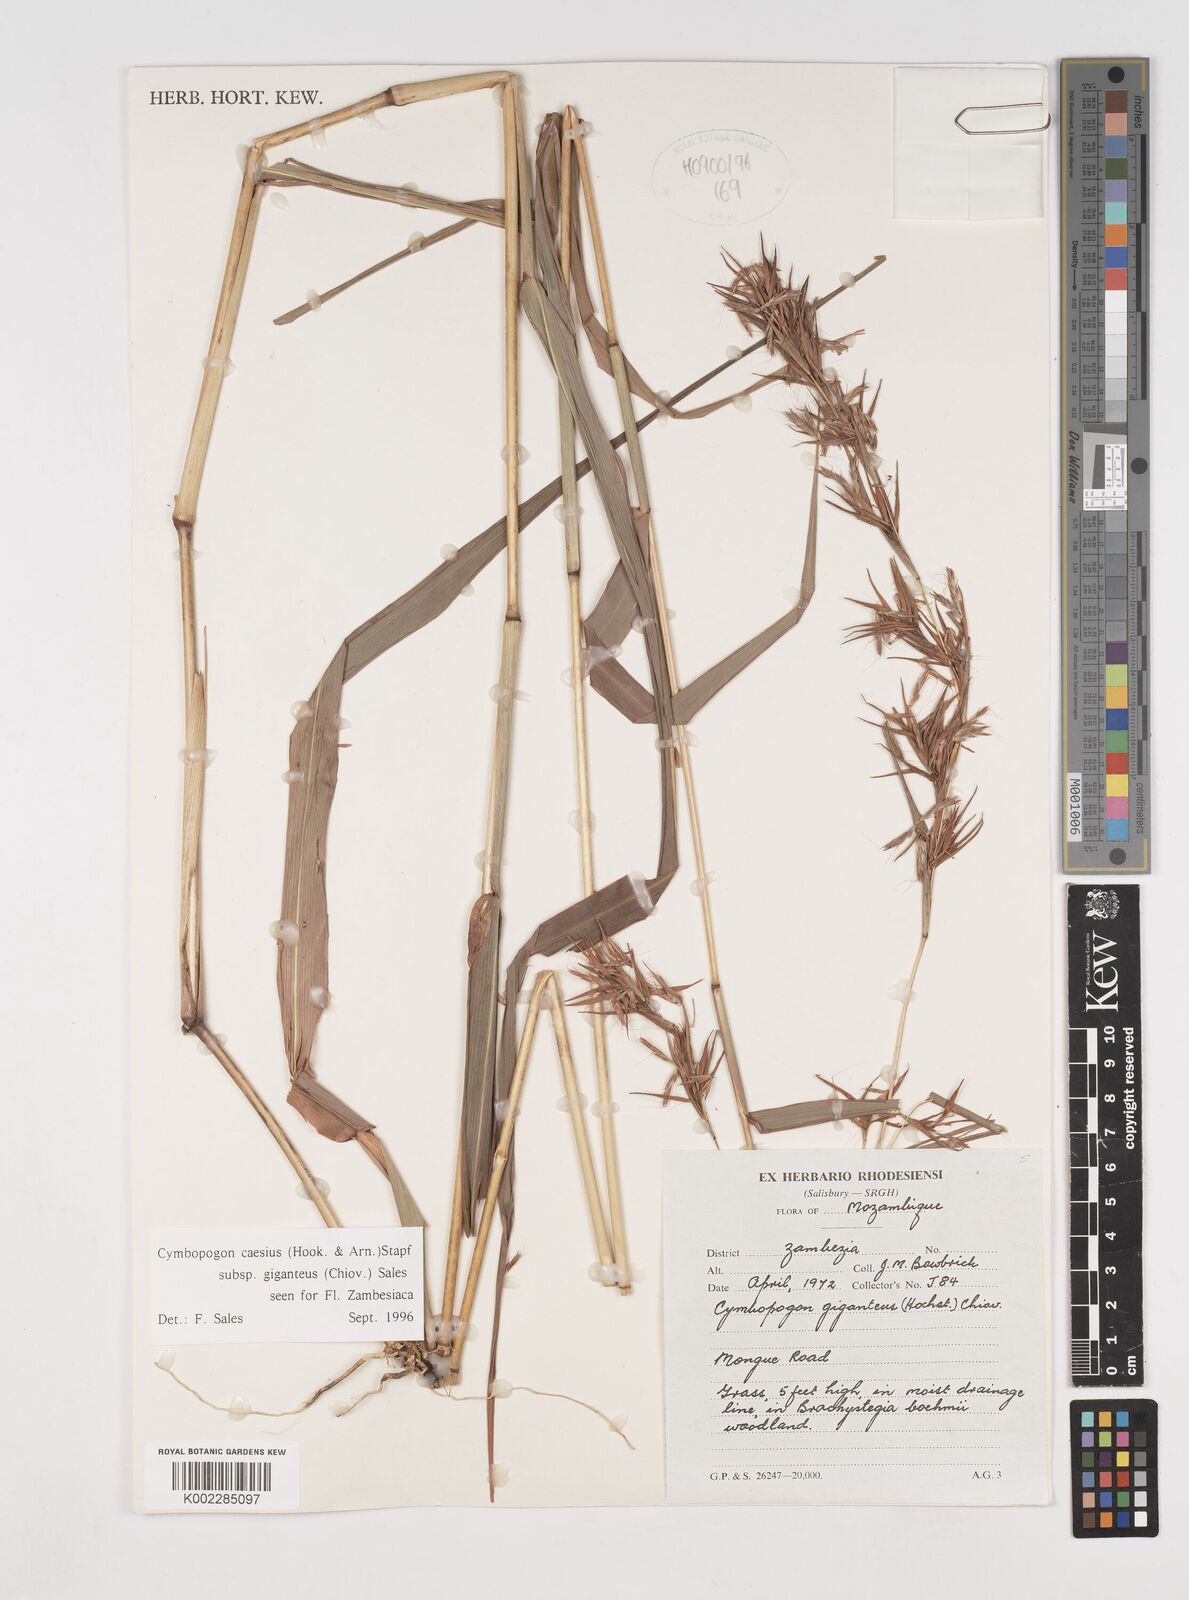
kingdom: Plantae
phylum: Tracheophyta
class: Liliopsida
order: Poales
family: Poaceae
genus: Cymbopogon
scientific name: Cymbopogon giganteus
